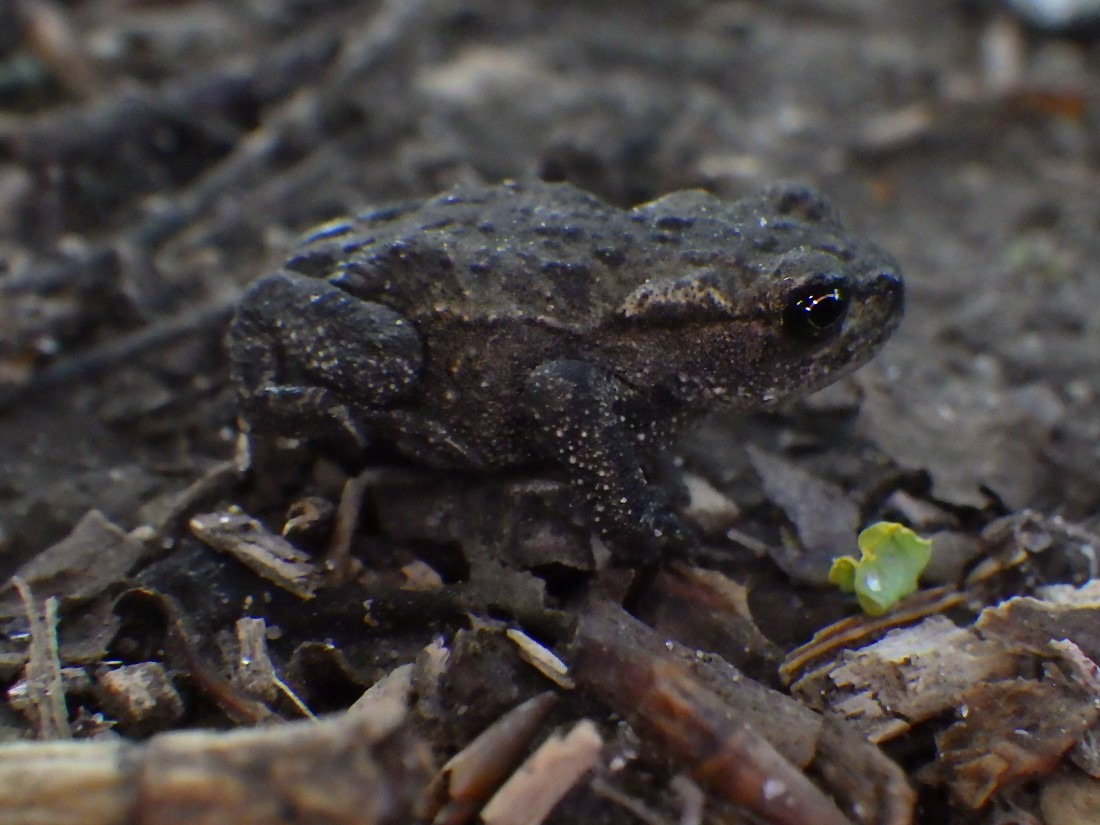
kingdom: Animalia
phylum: Chordata
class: Amphibia
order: Anura
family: Bufonidae
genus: Bufo
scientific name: Bufo bufo
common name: Skrubtudse
